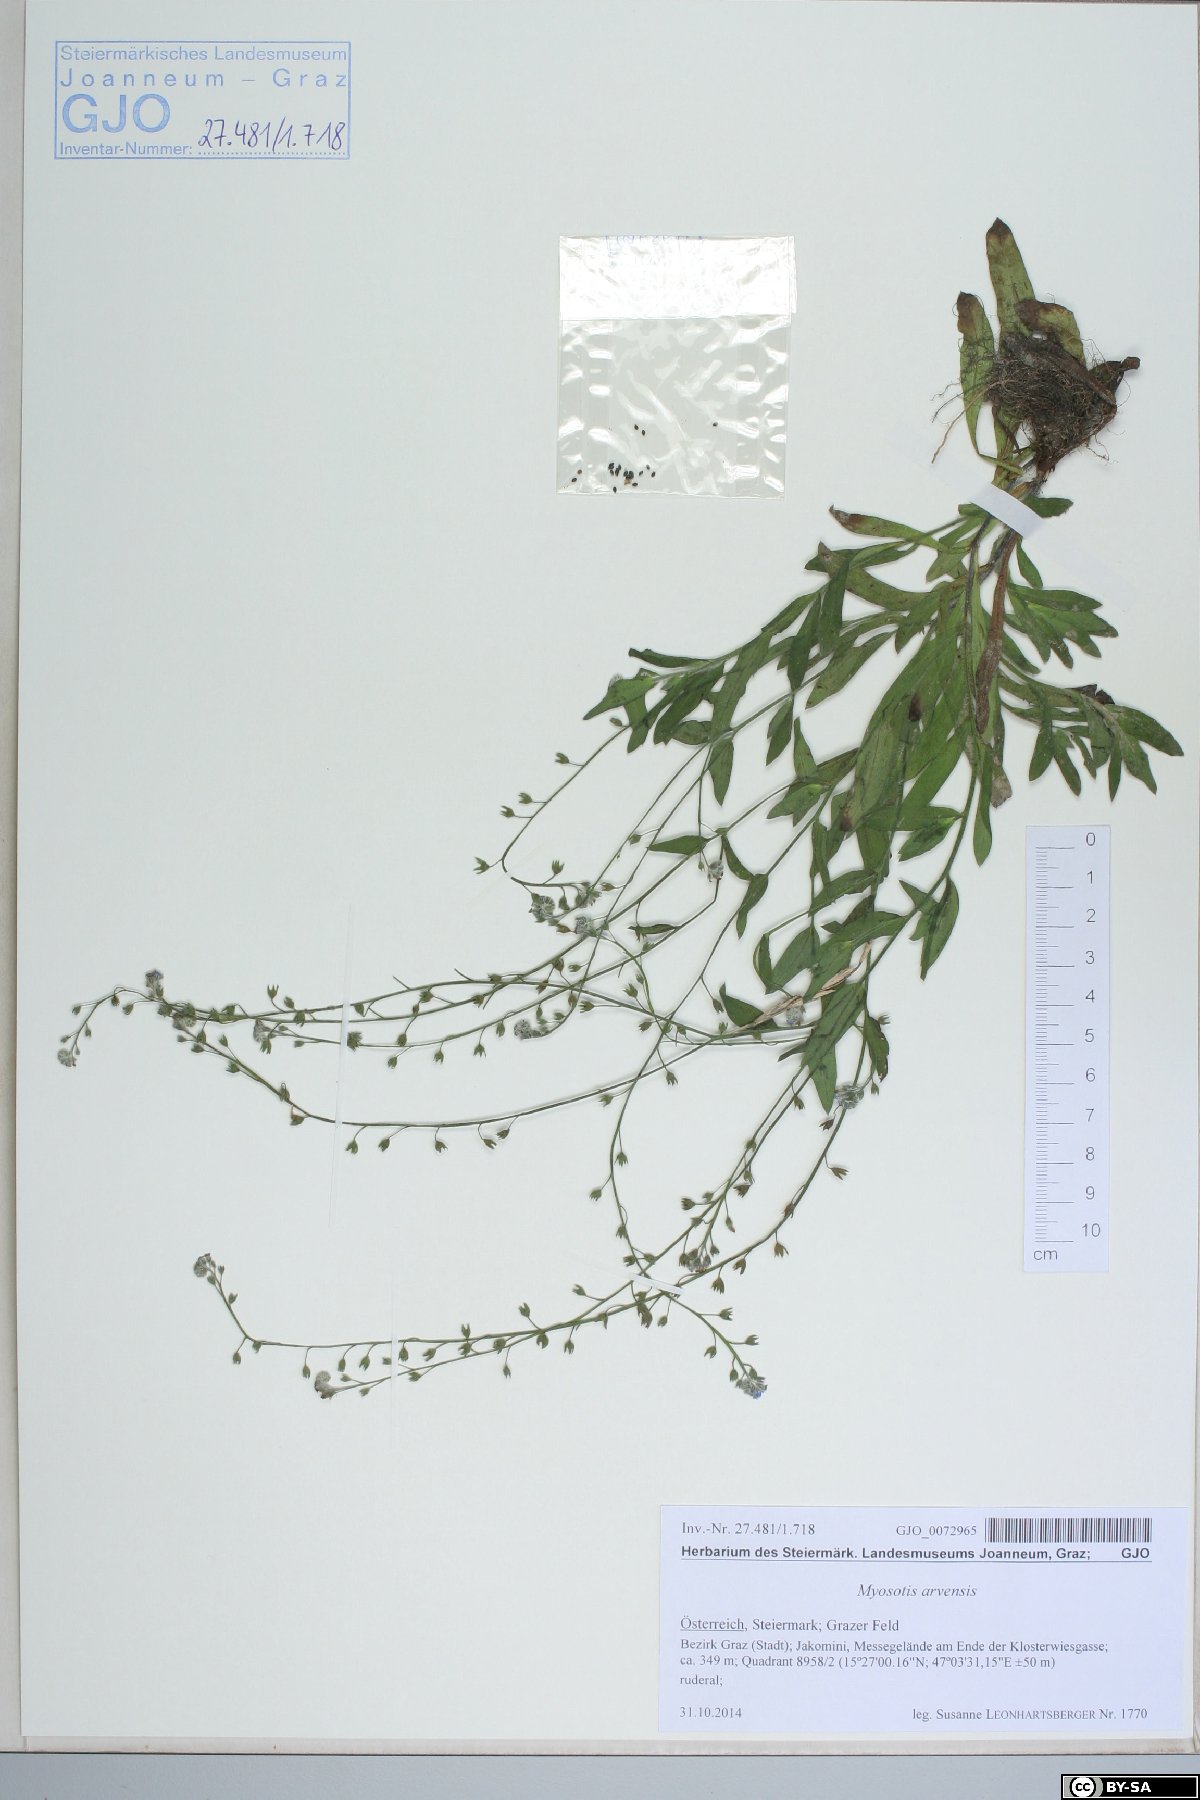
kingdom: Plantae
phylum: Tracheophyta
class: Magnoliopsida
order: Boraginales
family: Boraginaceae
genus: Myosotis
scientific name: Myosotis arvensis
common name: Field forget-me-not
